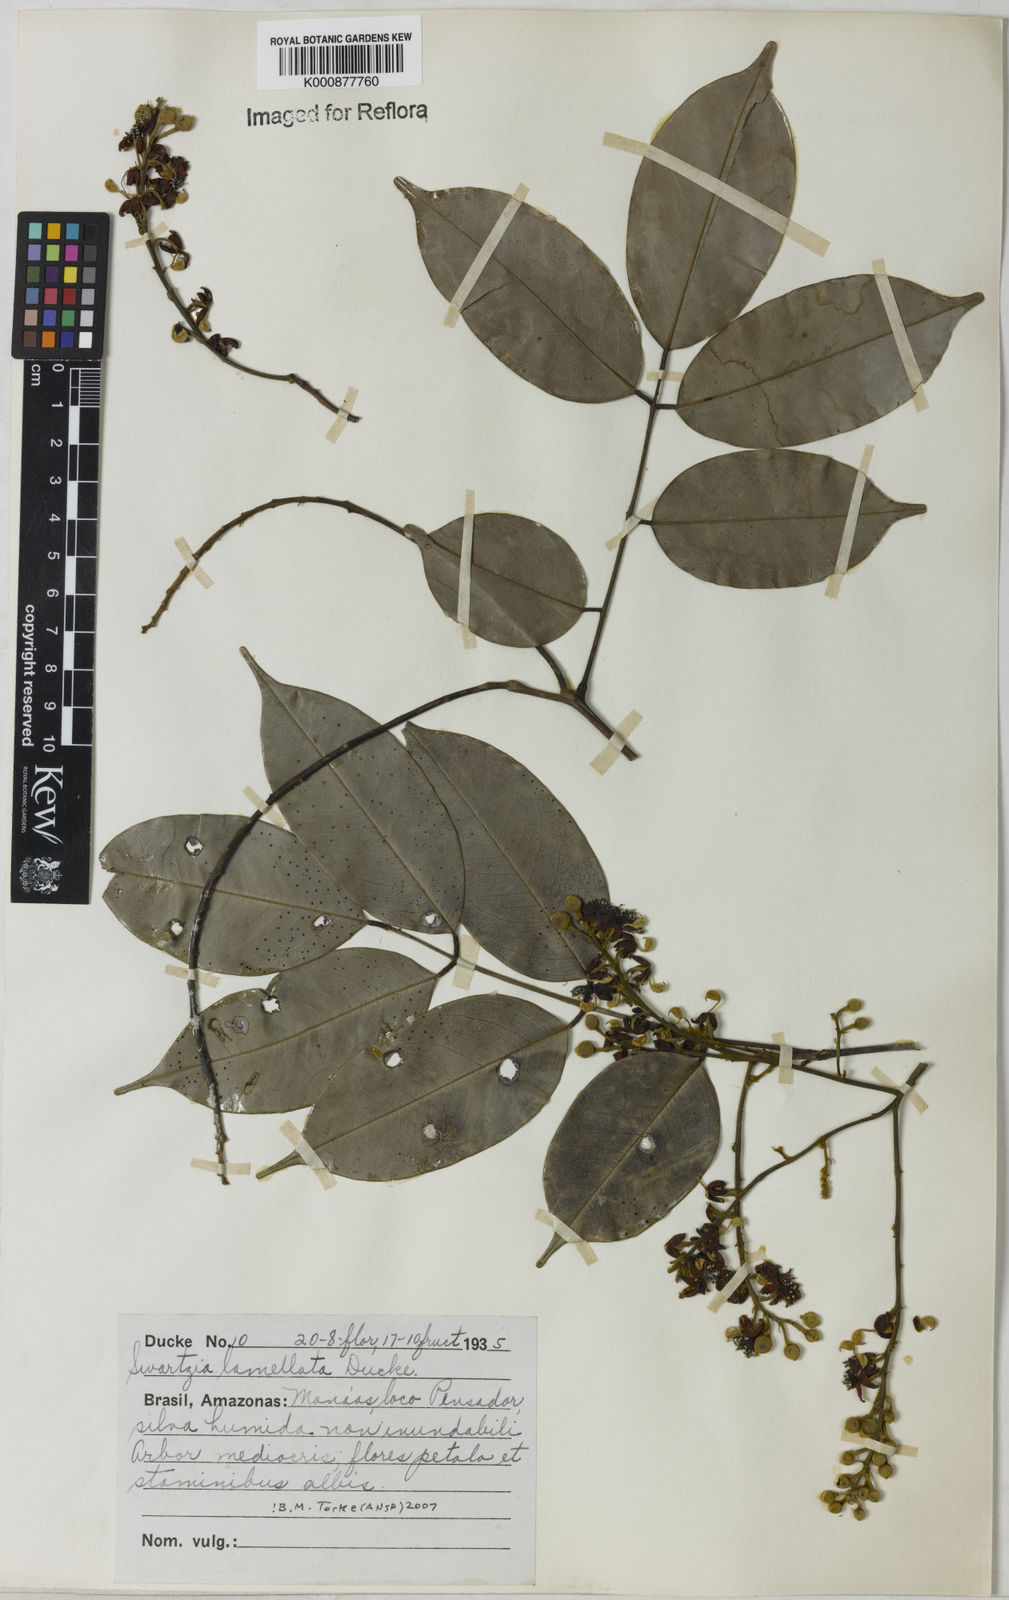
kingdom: Plantae
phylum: Tracheophyta
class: Magnoliopsida
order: Fabales
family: Fabaceae
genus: Swartzia
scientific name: Swartzia lamellata
